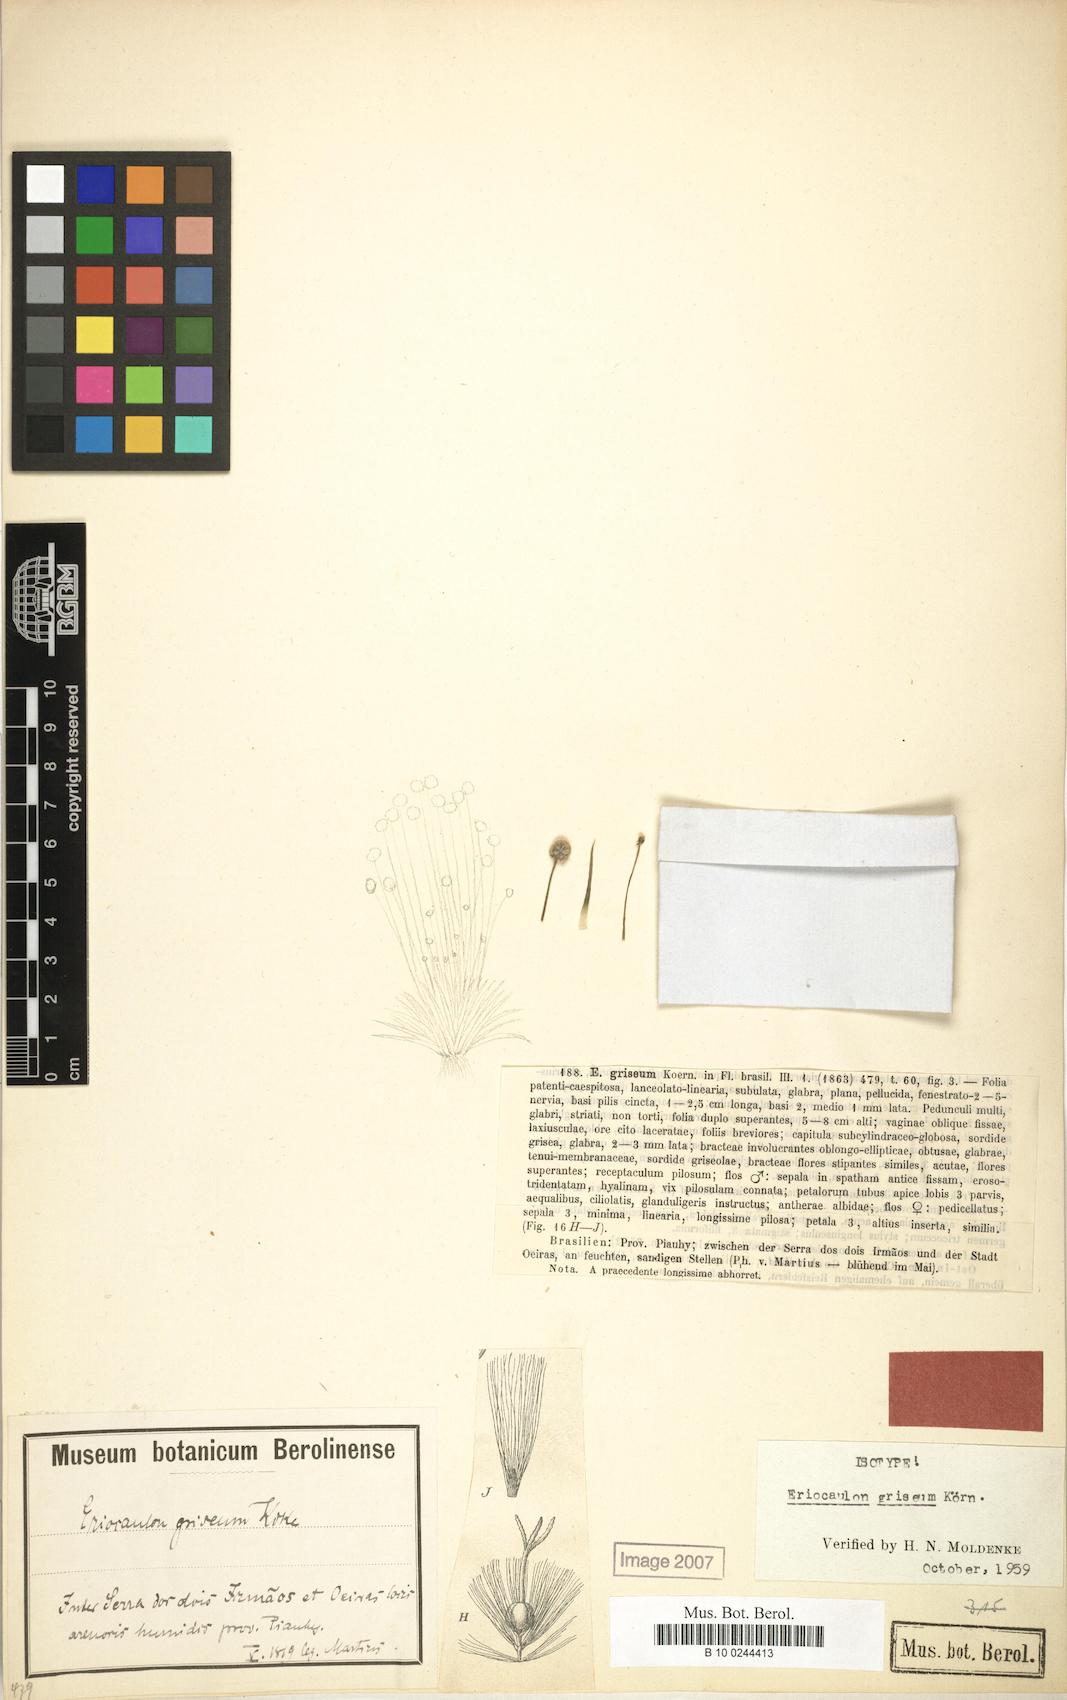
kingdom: Plantae
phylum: Tracheophyta
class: Liliopsida
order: Poales
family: Eriocaulaceae
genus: Eriocaulon
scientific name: Eriocaulon griseum
